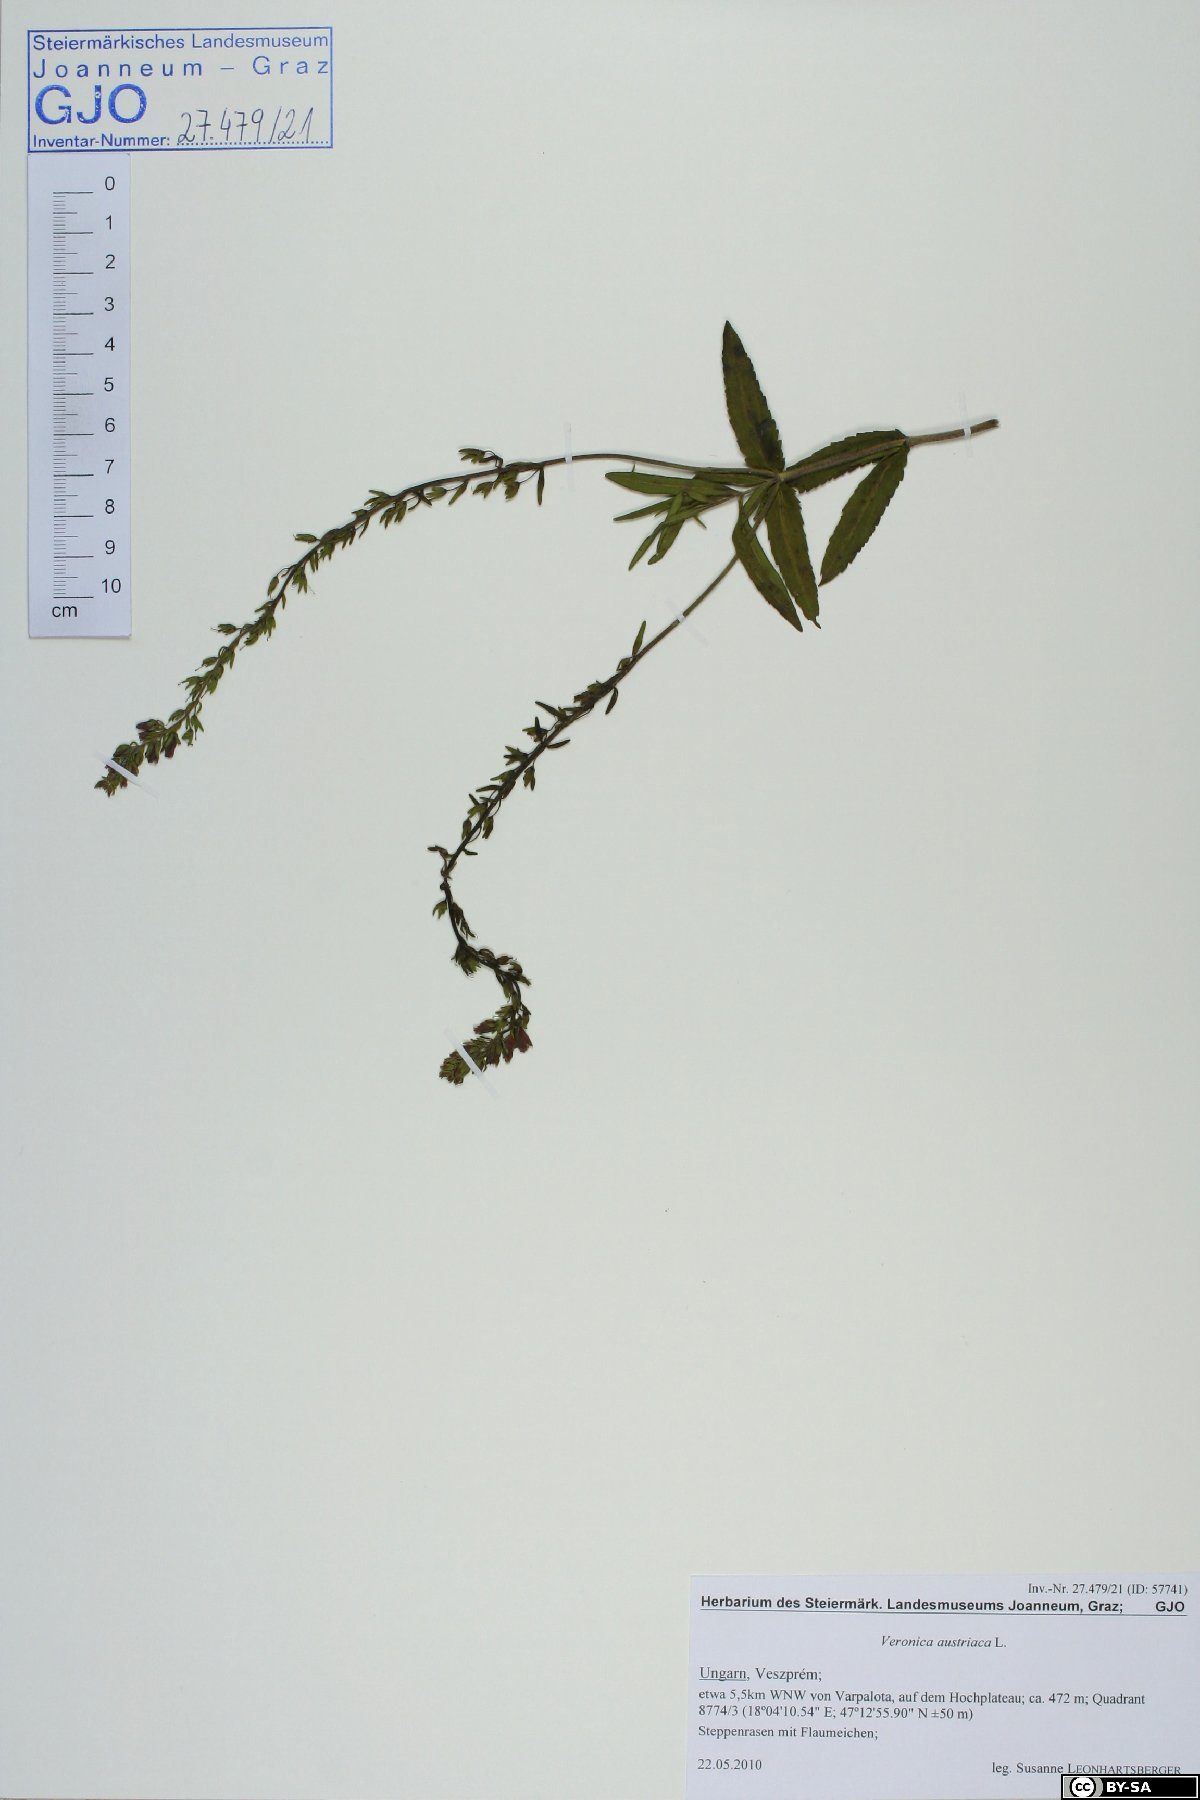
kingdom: Plantae
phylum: Tracheophyta
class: Magnoliopsida
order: Lamiales
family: Plantaginaceae
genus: Veronica
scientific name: Veronica austriaca
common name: Large speedwell
